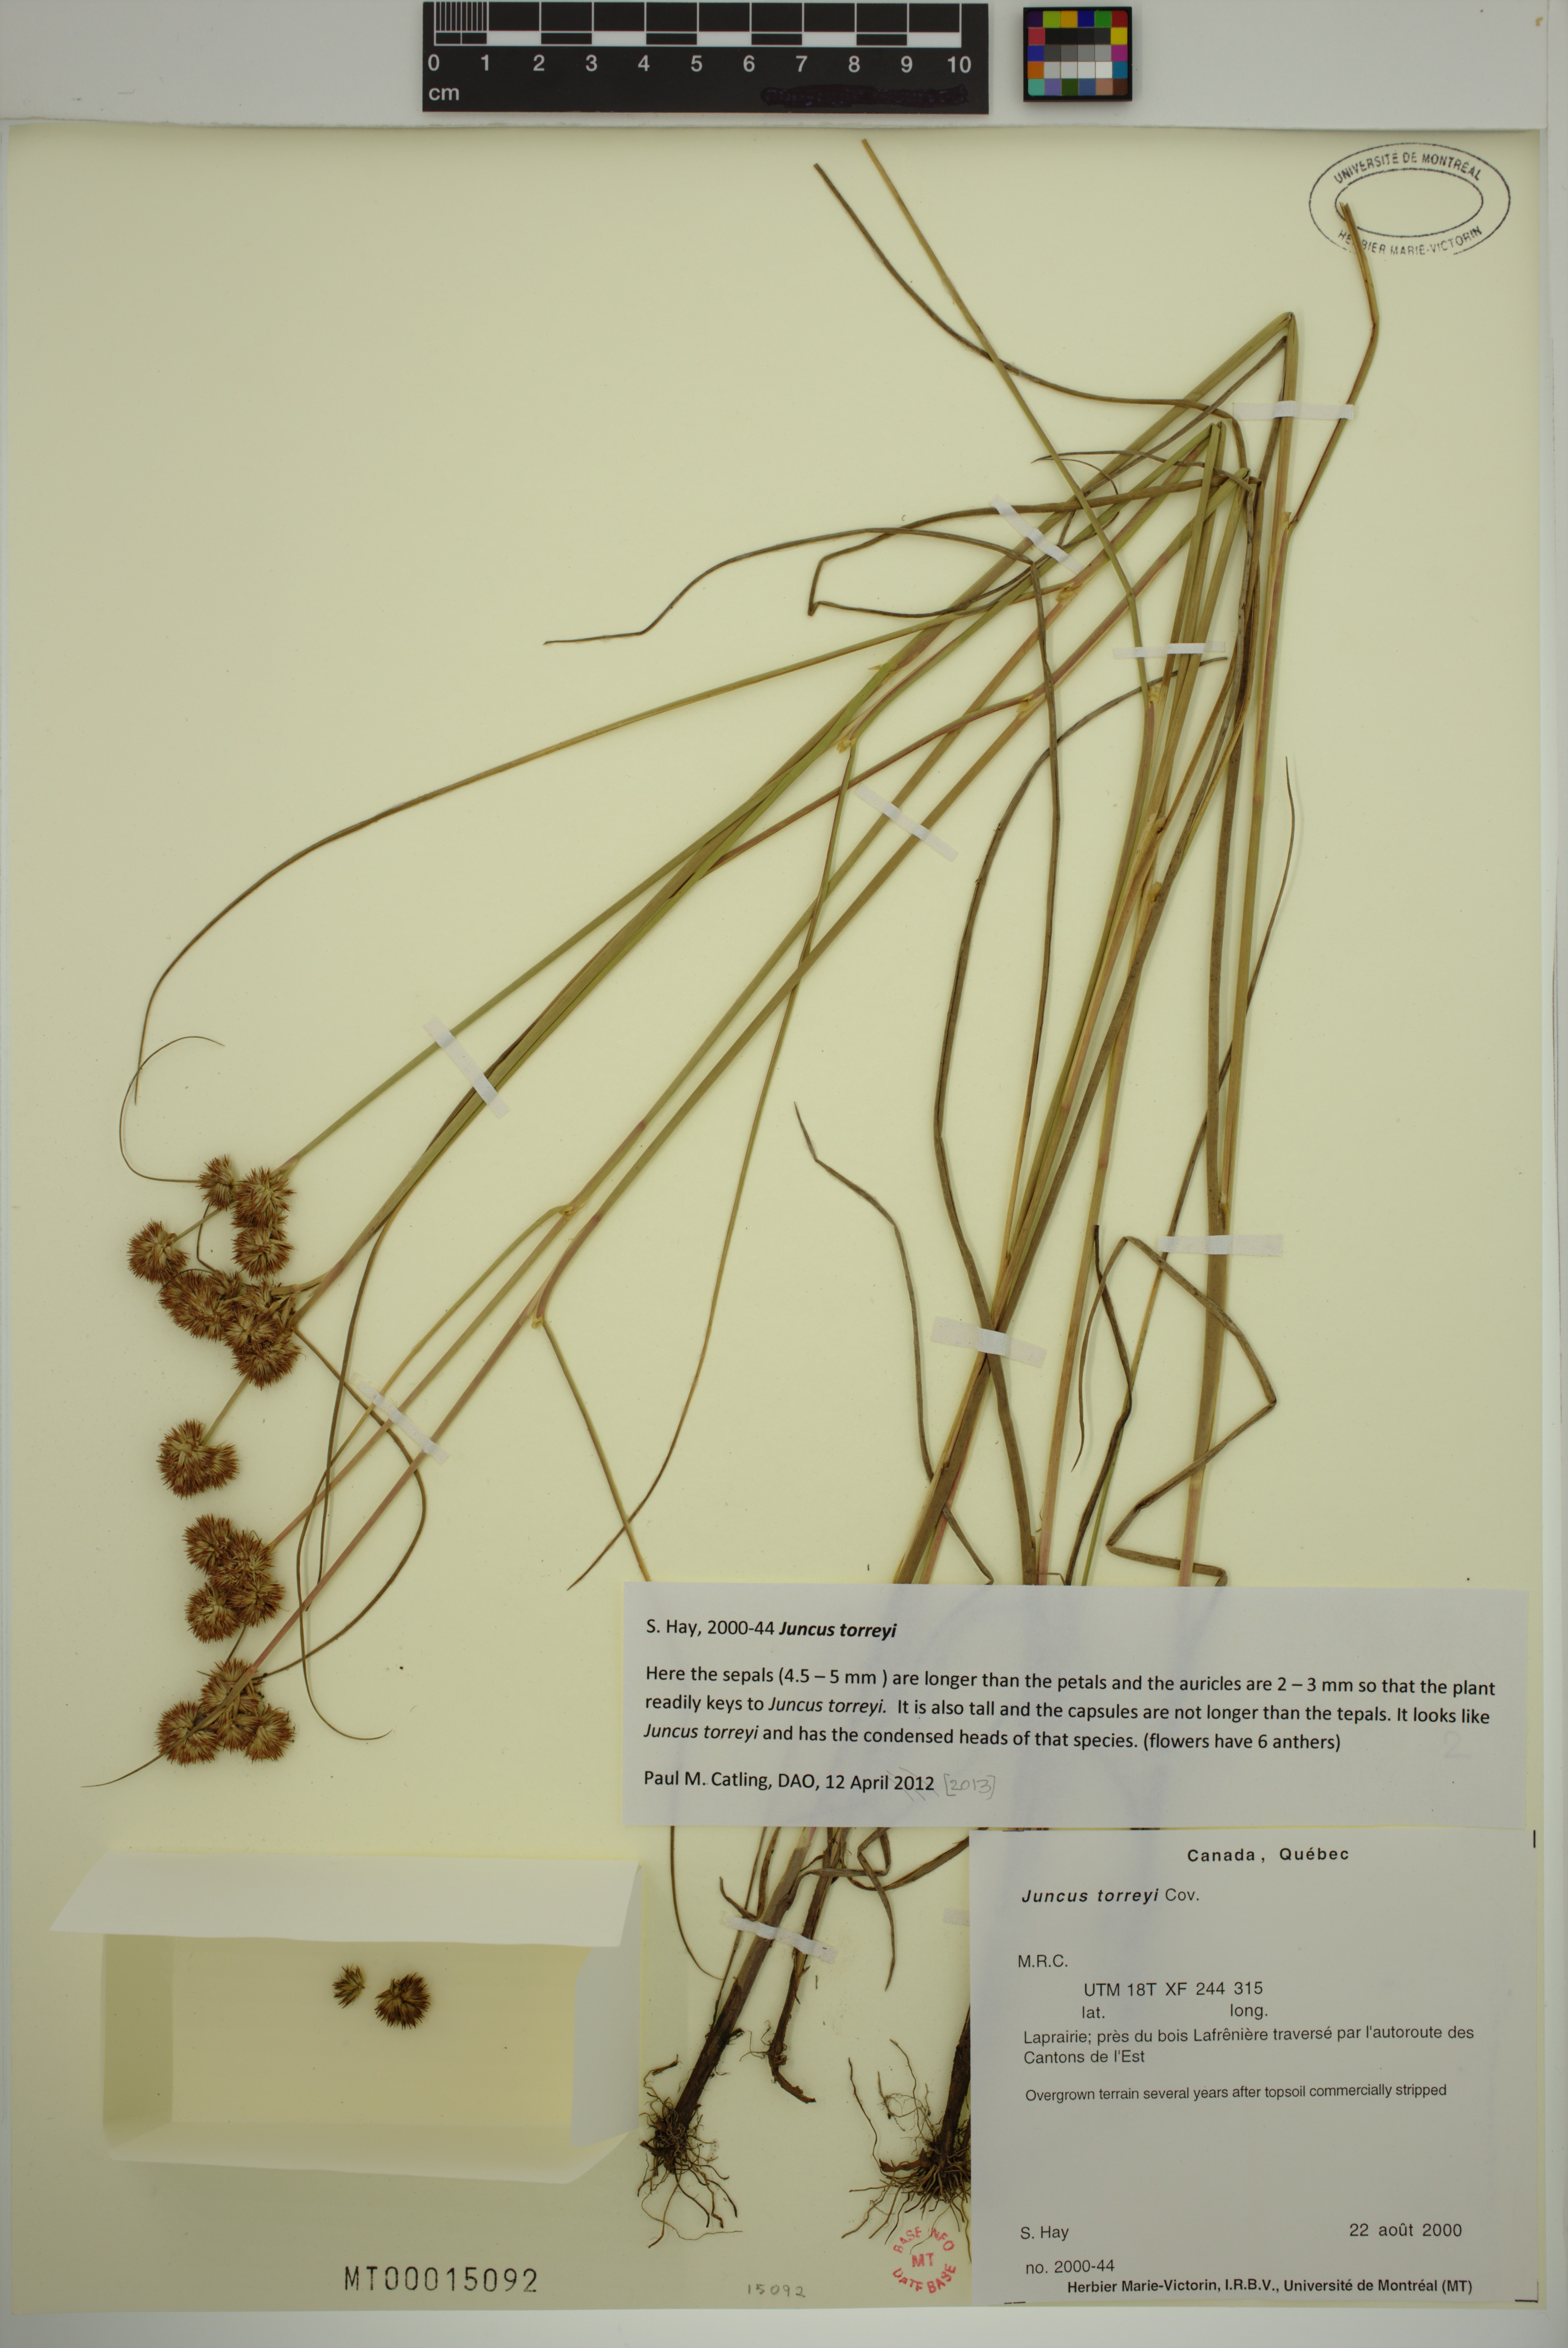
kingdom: Plantae
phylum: Tracheophyta
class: Liliopsida
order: Poales
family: Juncaceae
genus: Juncus
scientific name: Juncus torreyi
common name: Torrey's rush
